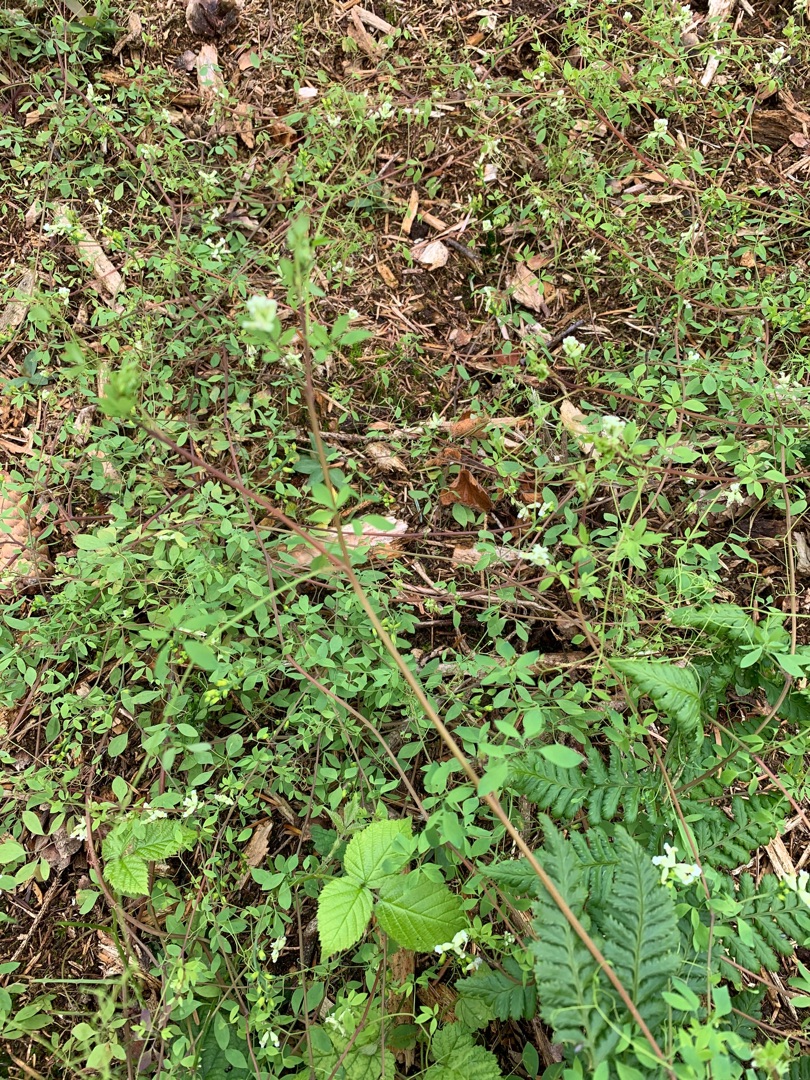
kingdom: Plantae
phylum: Tracheophyta
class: Magnoliopsida
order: Ranunculales
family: Papaveraceae
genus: Ceratocapnos
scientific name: Ceratocapnos claviculata
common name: Klatrende lærkespore
